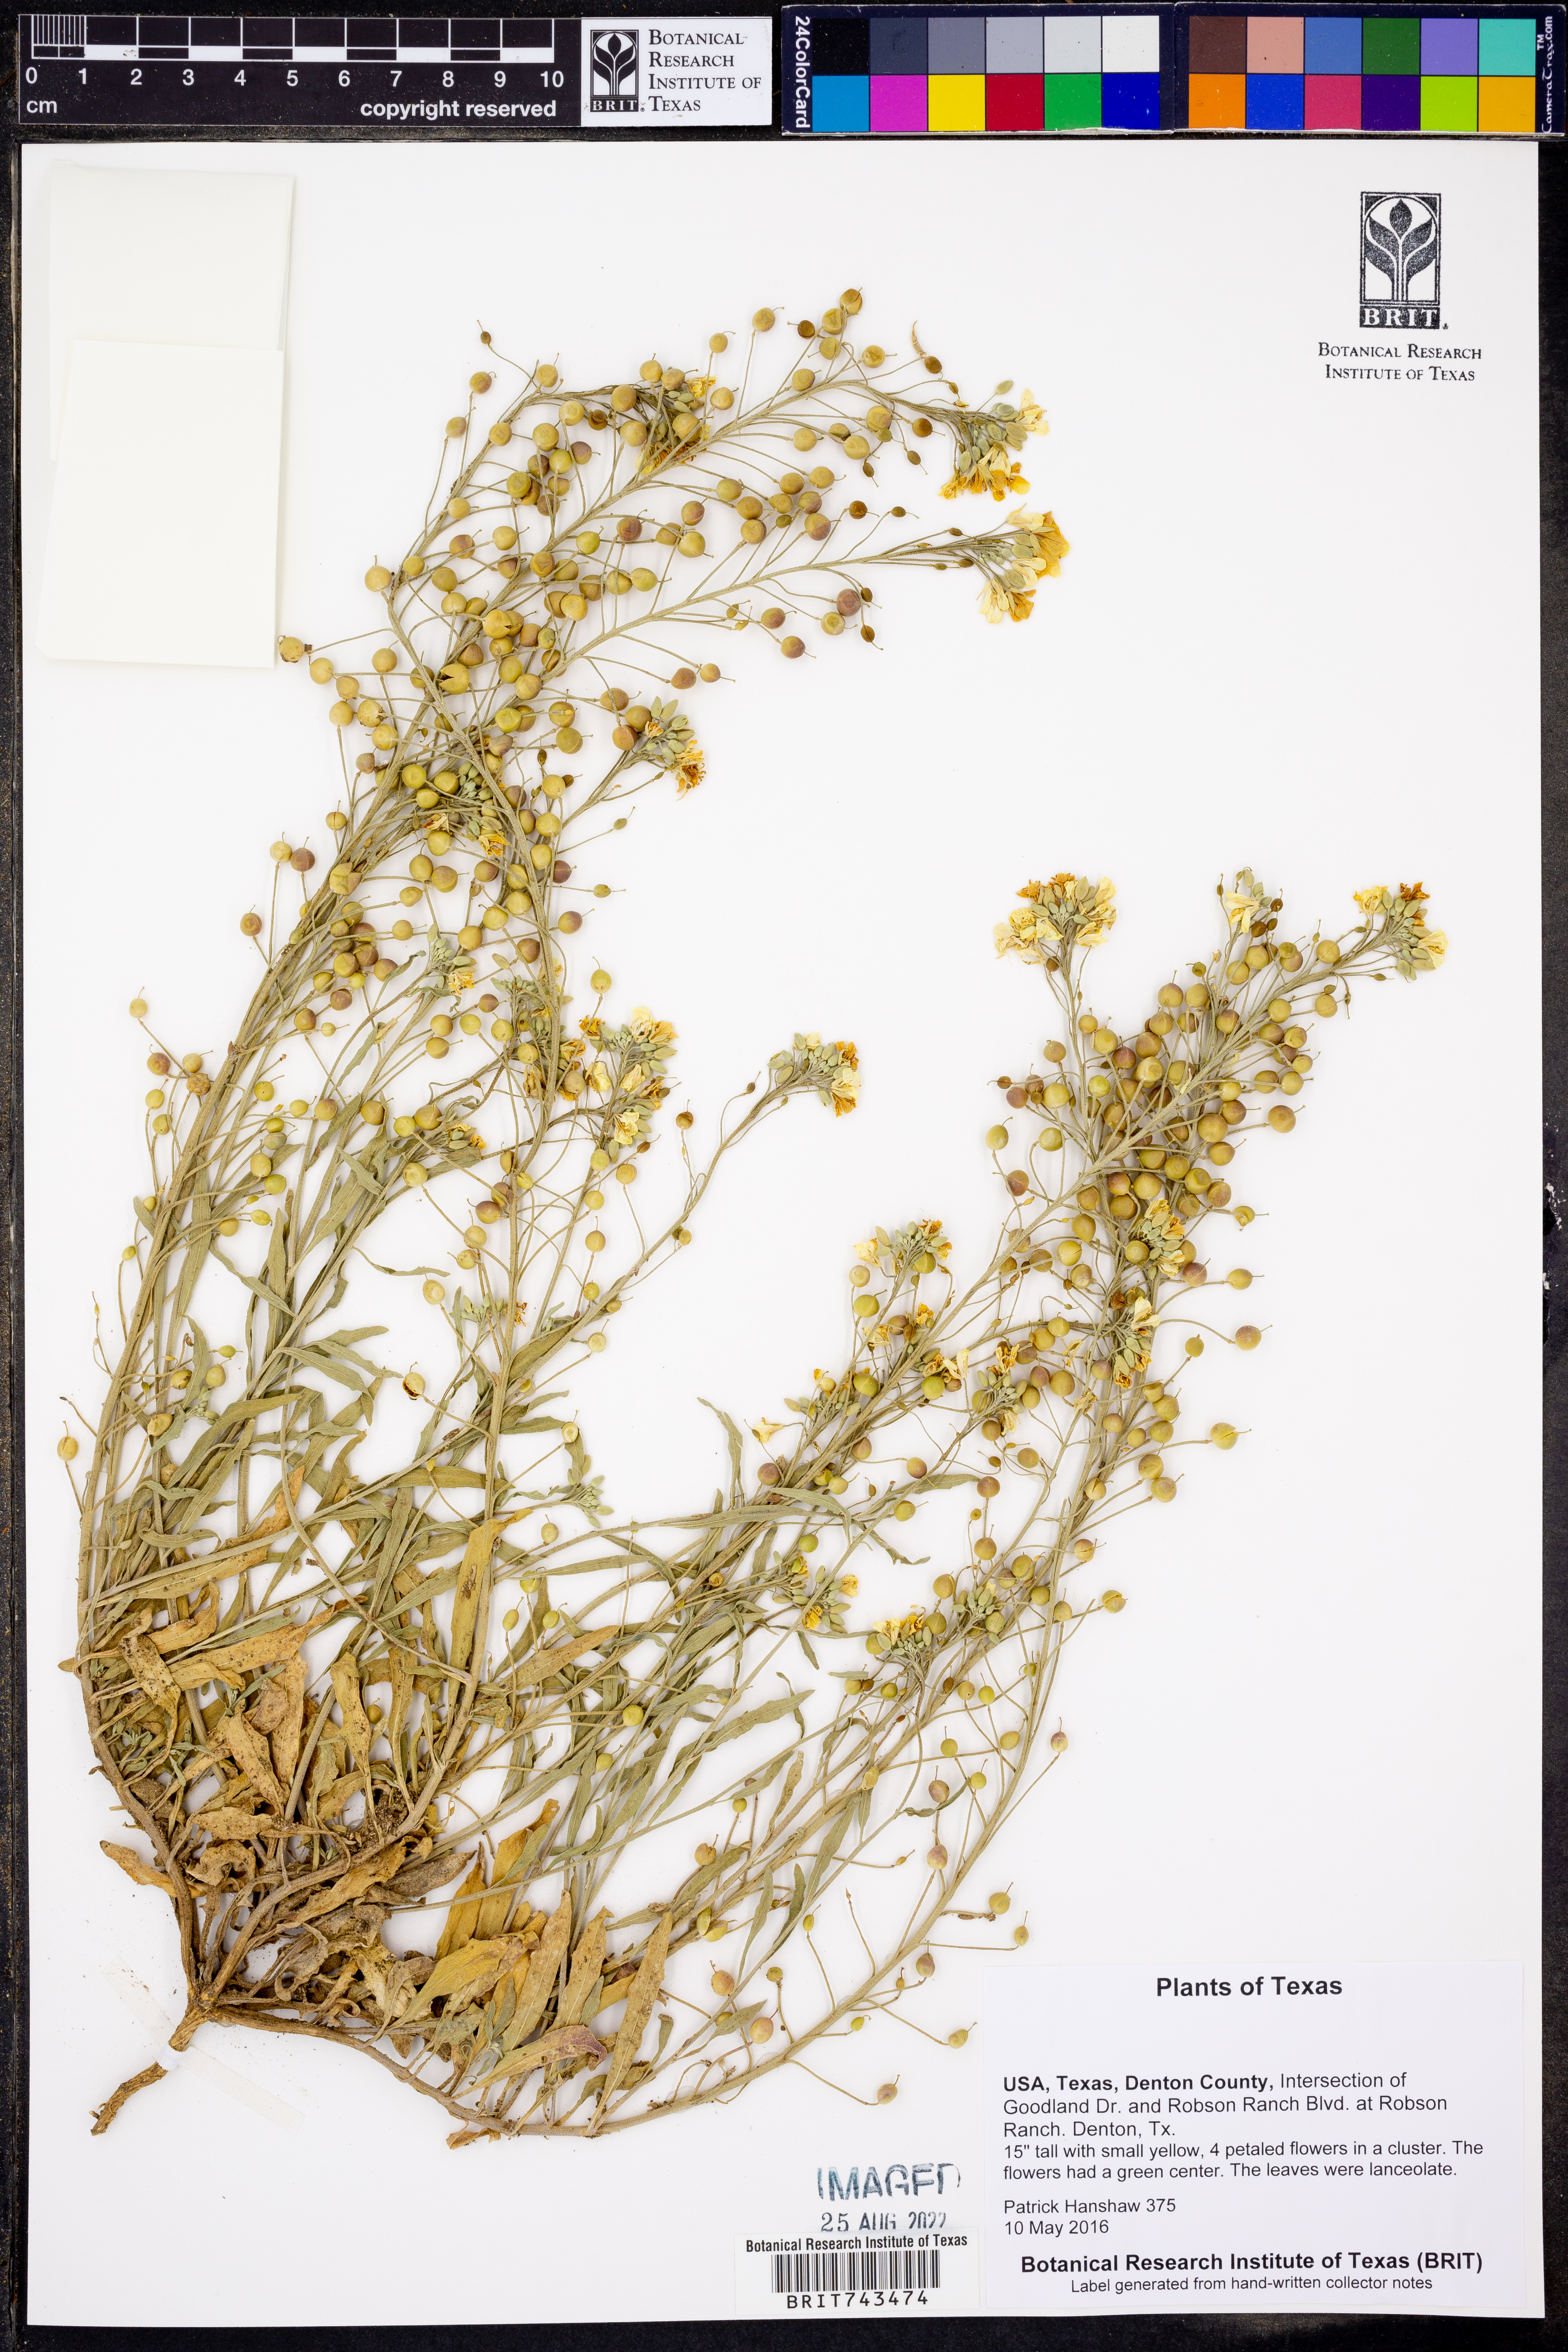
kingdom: Plantae
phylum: Tracheophyta
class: Magnoliopsida
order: Brassicales
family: Brassicaceae
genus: Physaria
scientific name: Physaria gracilis
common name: Spreading bladderpod
